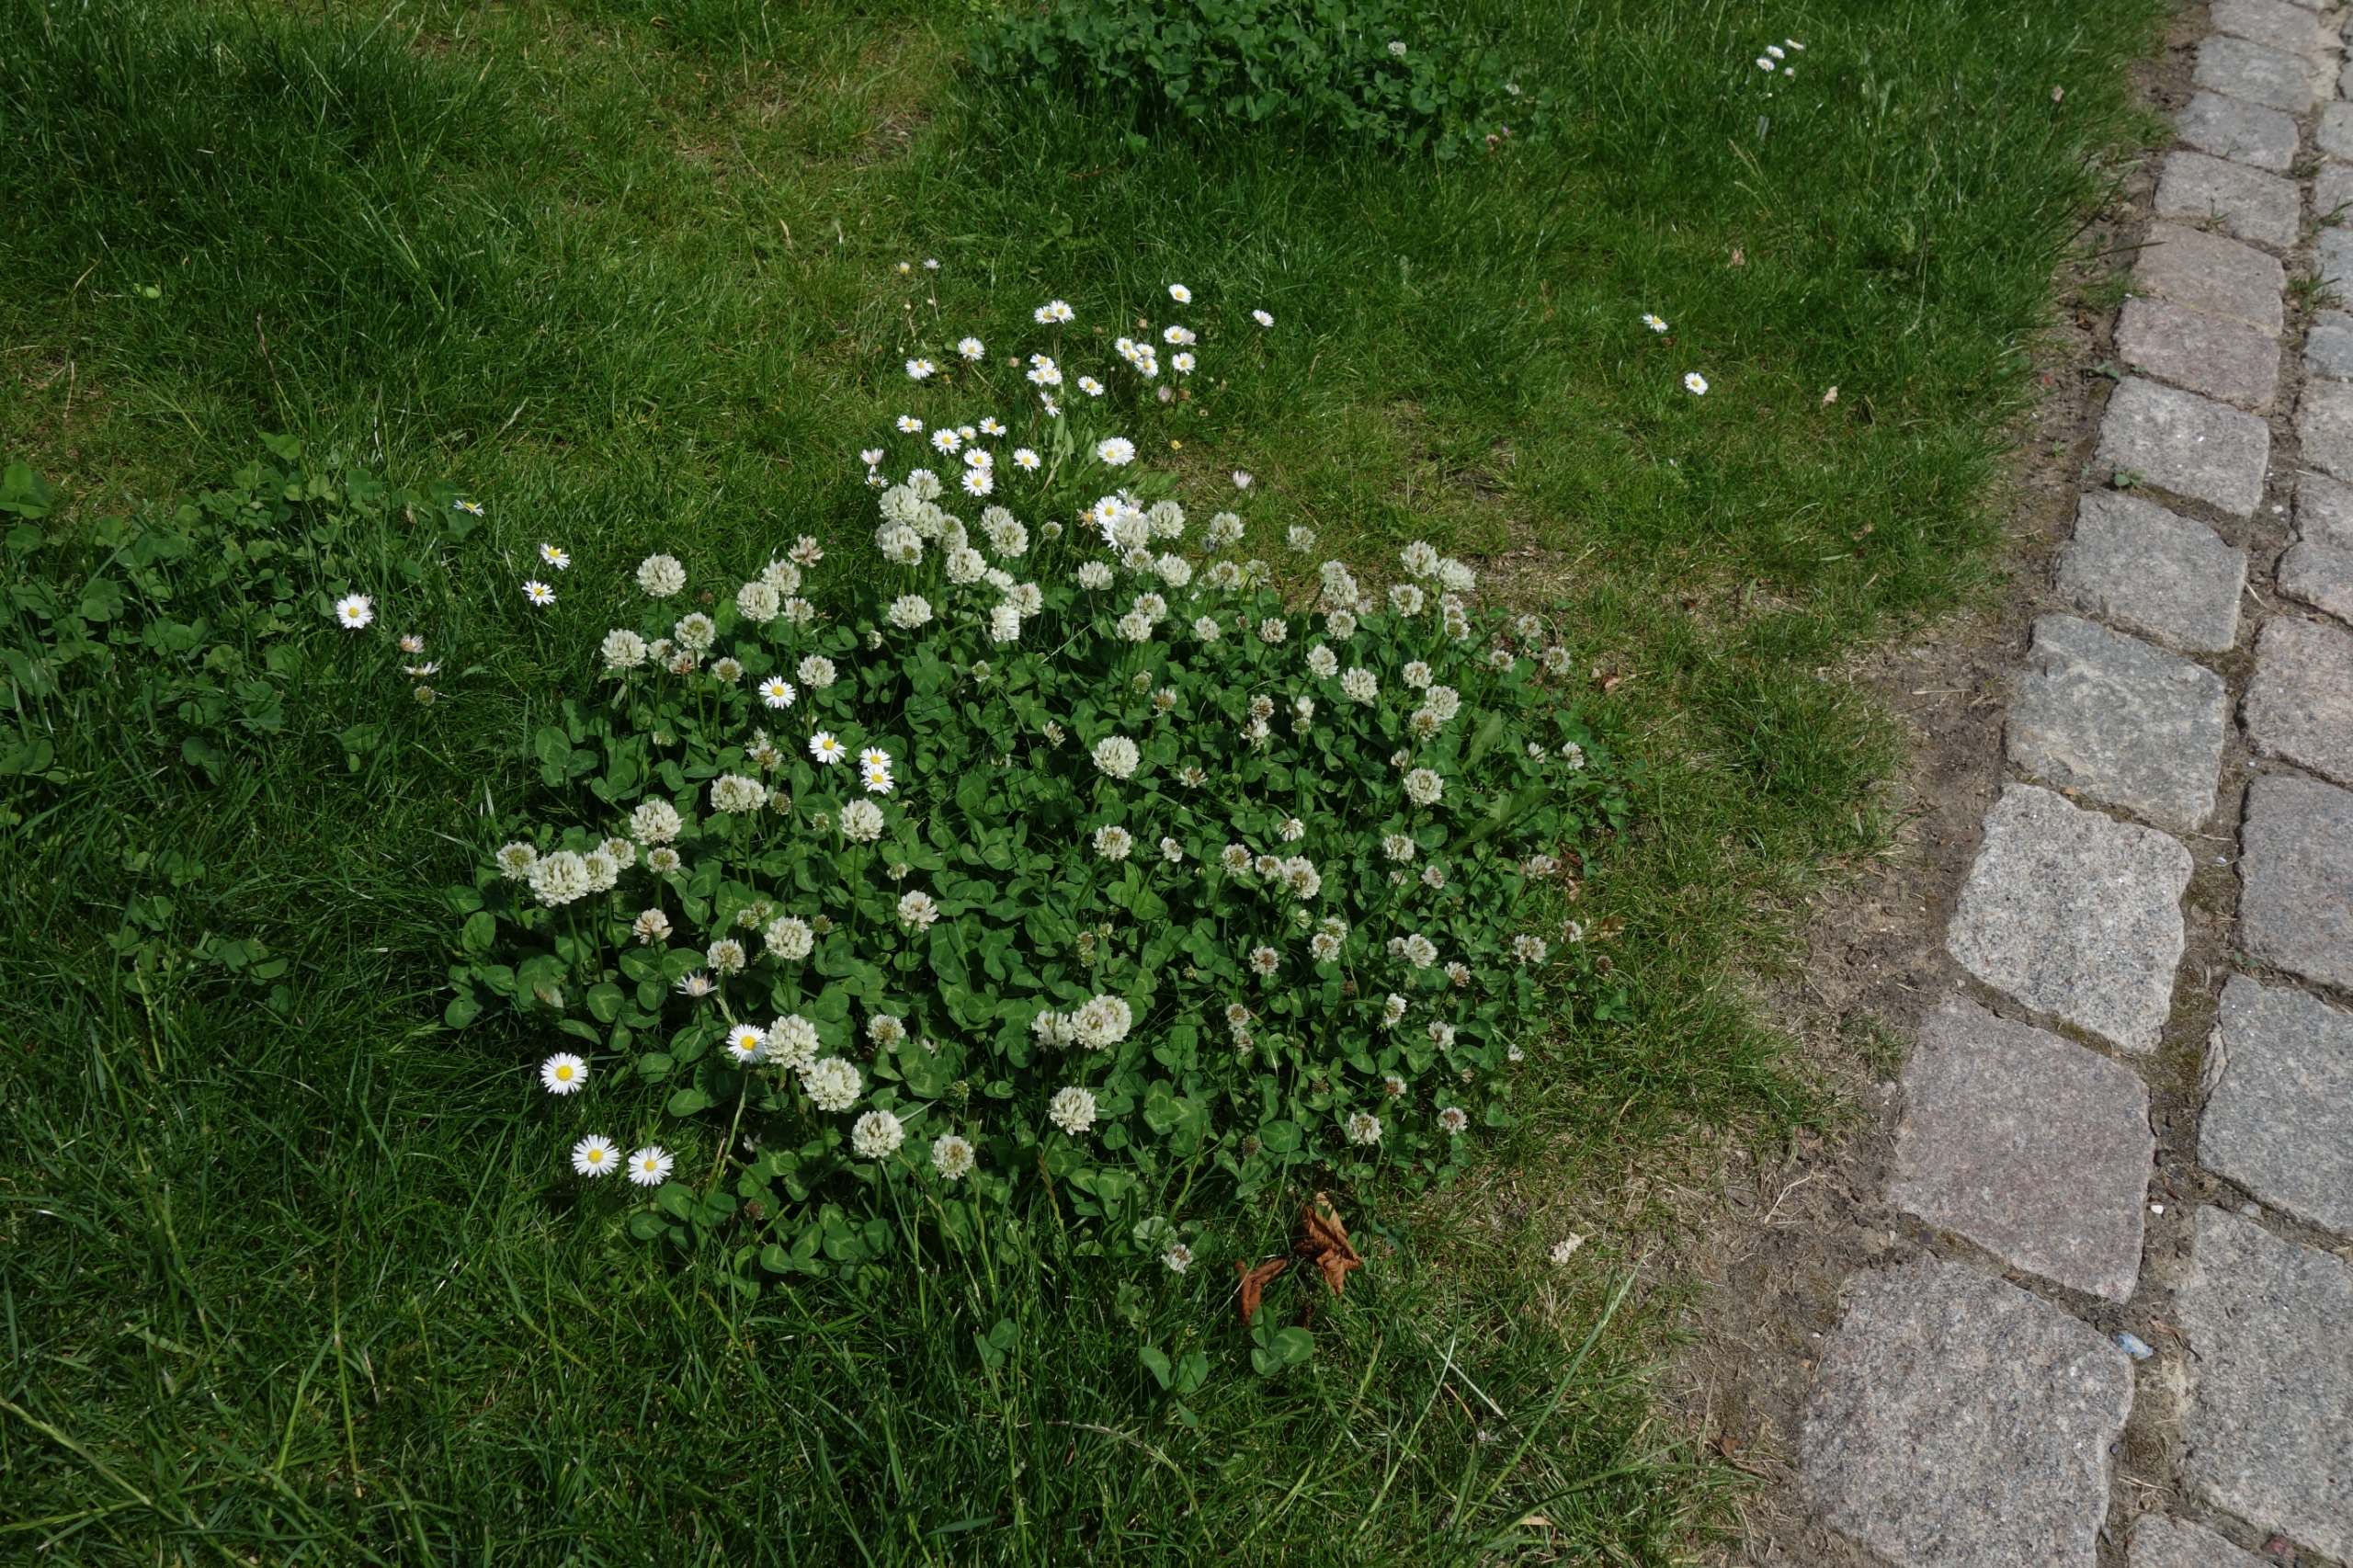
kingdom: Plantae
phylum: Tracheophyta
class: Magnoliopsida
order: Fabales
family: Fabaceae
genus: Trifolium
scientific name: Trifolium repens
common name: Hvid-kløver
